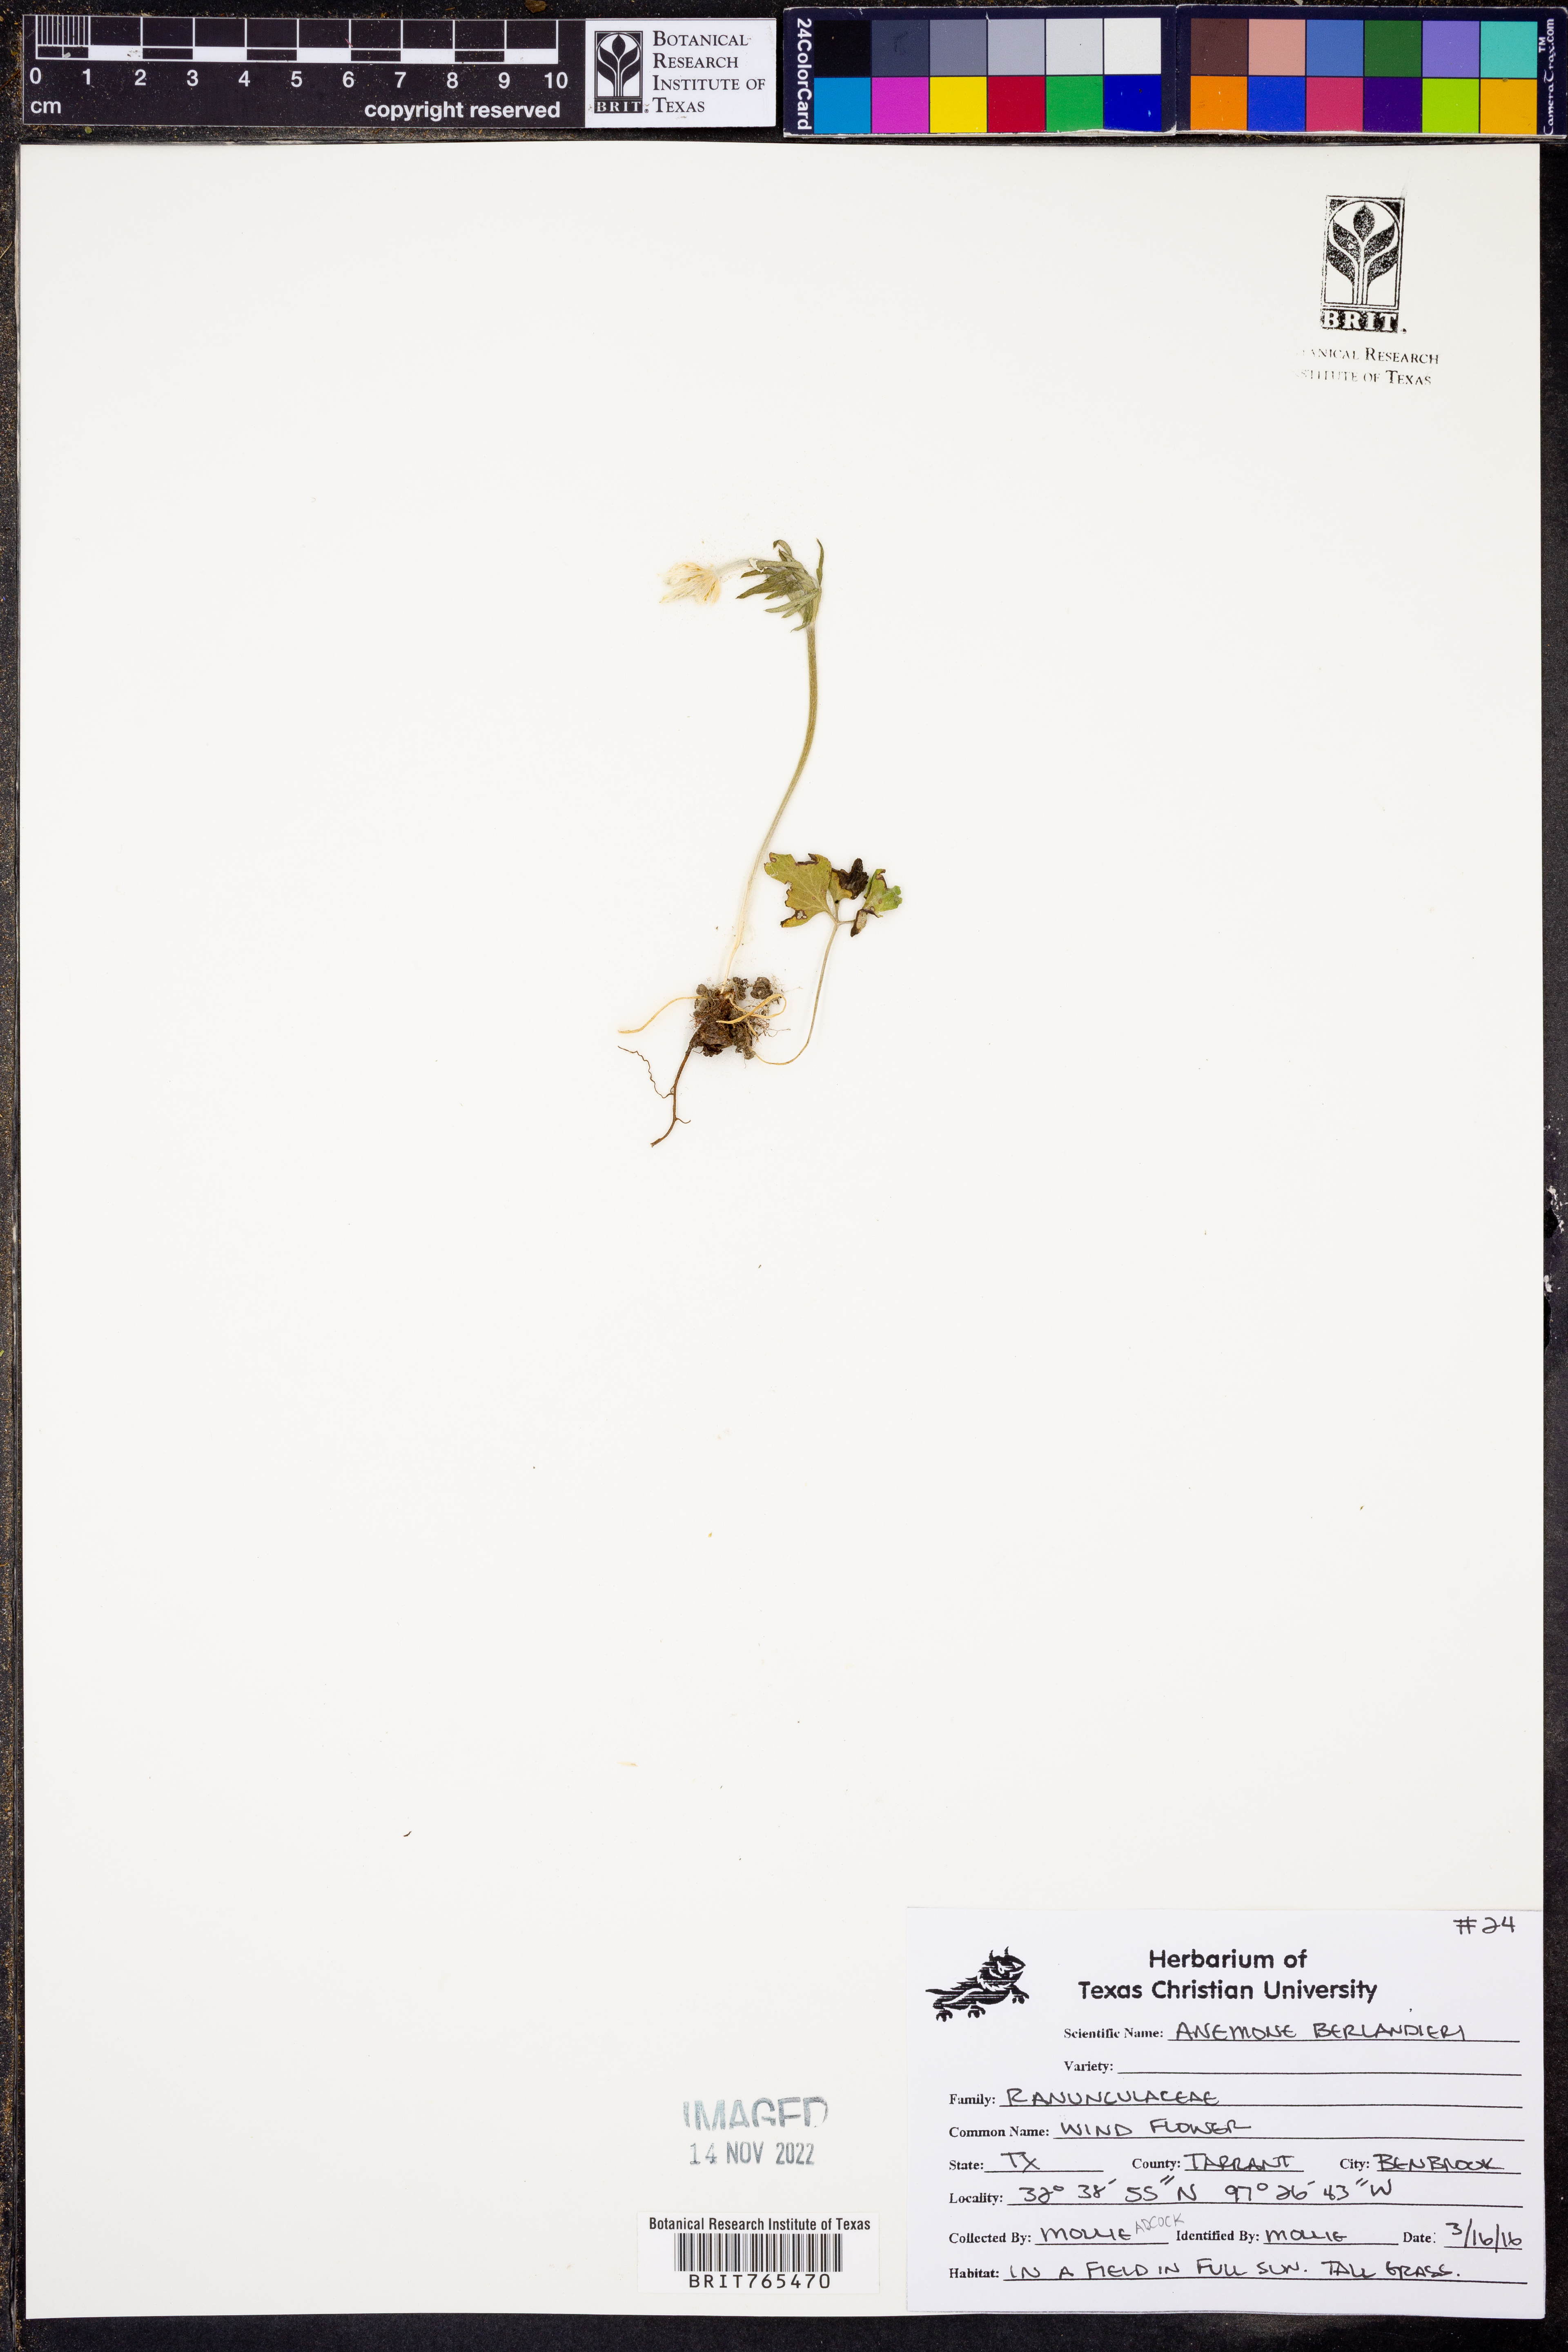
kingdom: Plantae
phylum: Tracheophyta
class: Magnoliopsida
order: Ranunculales
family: Ranunculaceae
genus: Anemone
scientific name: Anemone berlandieri
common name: Ten-petal anemone
